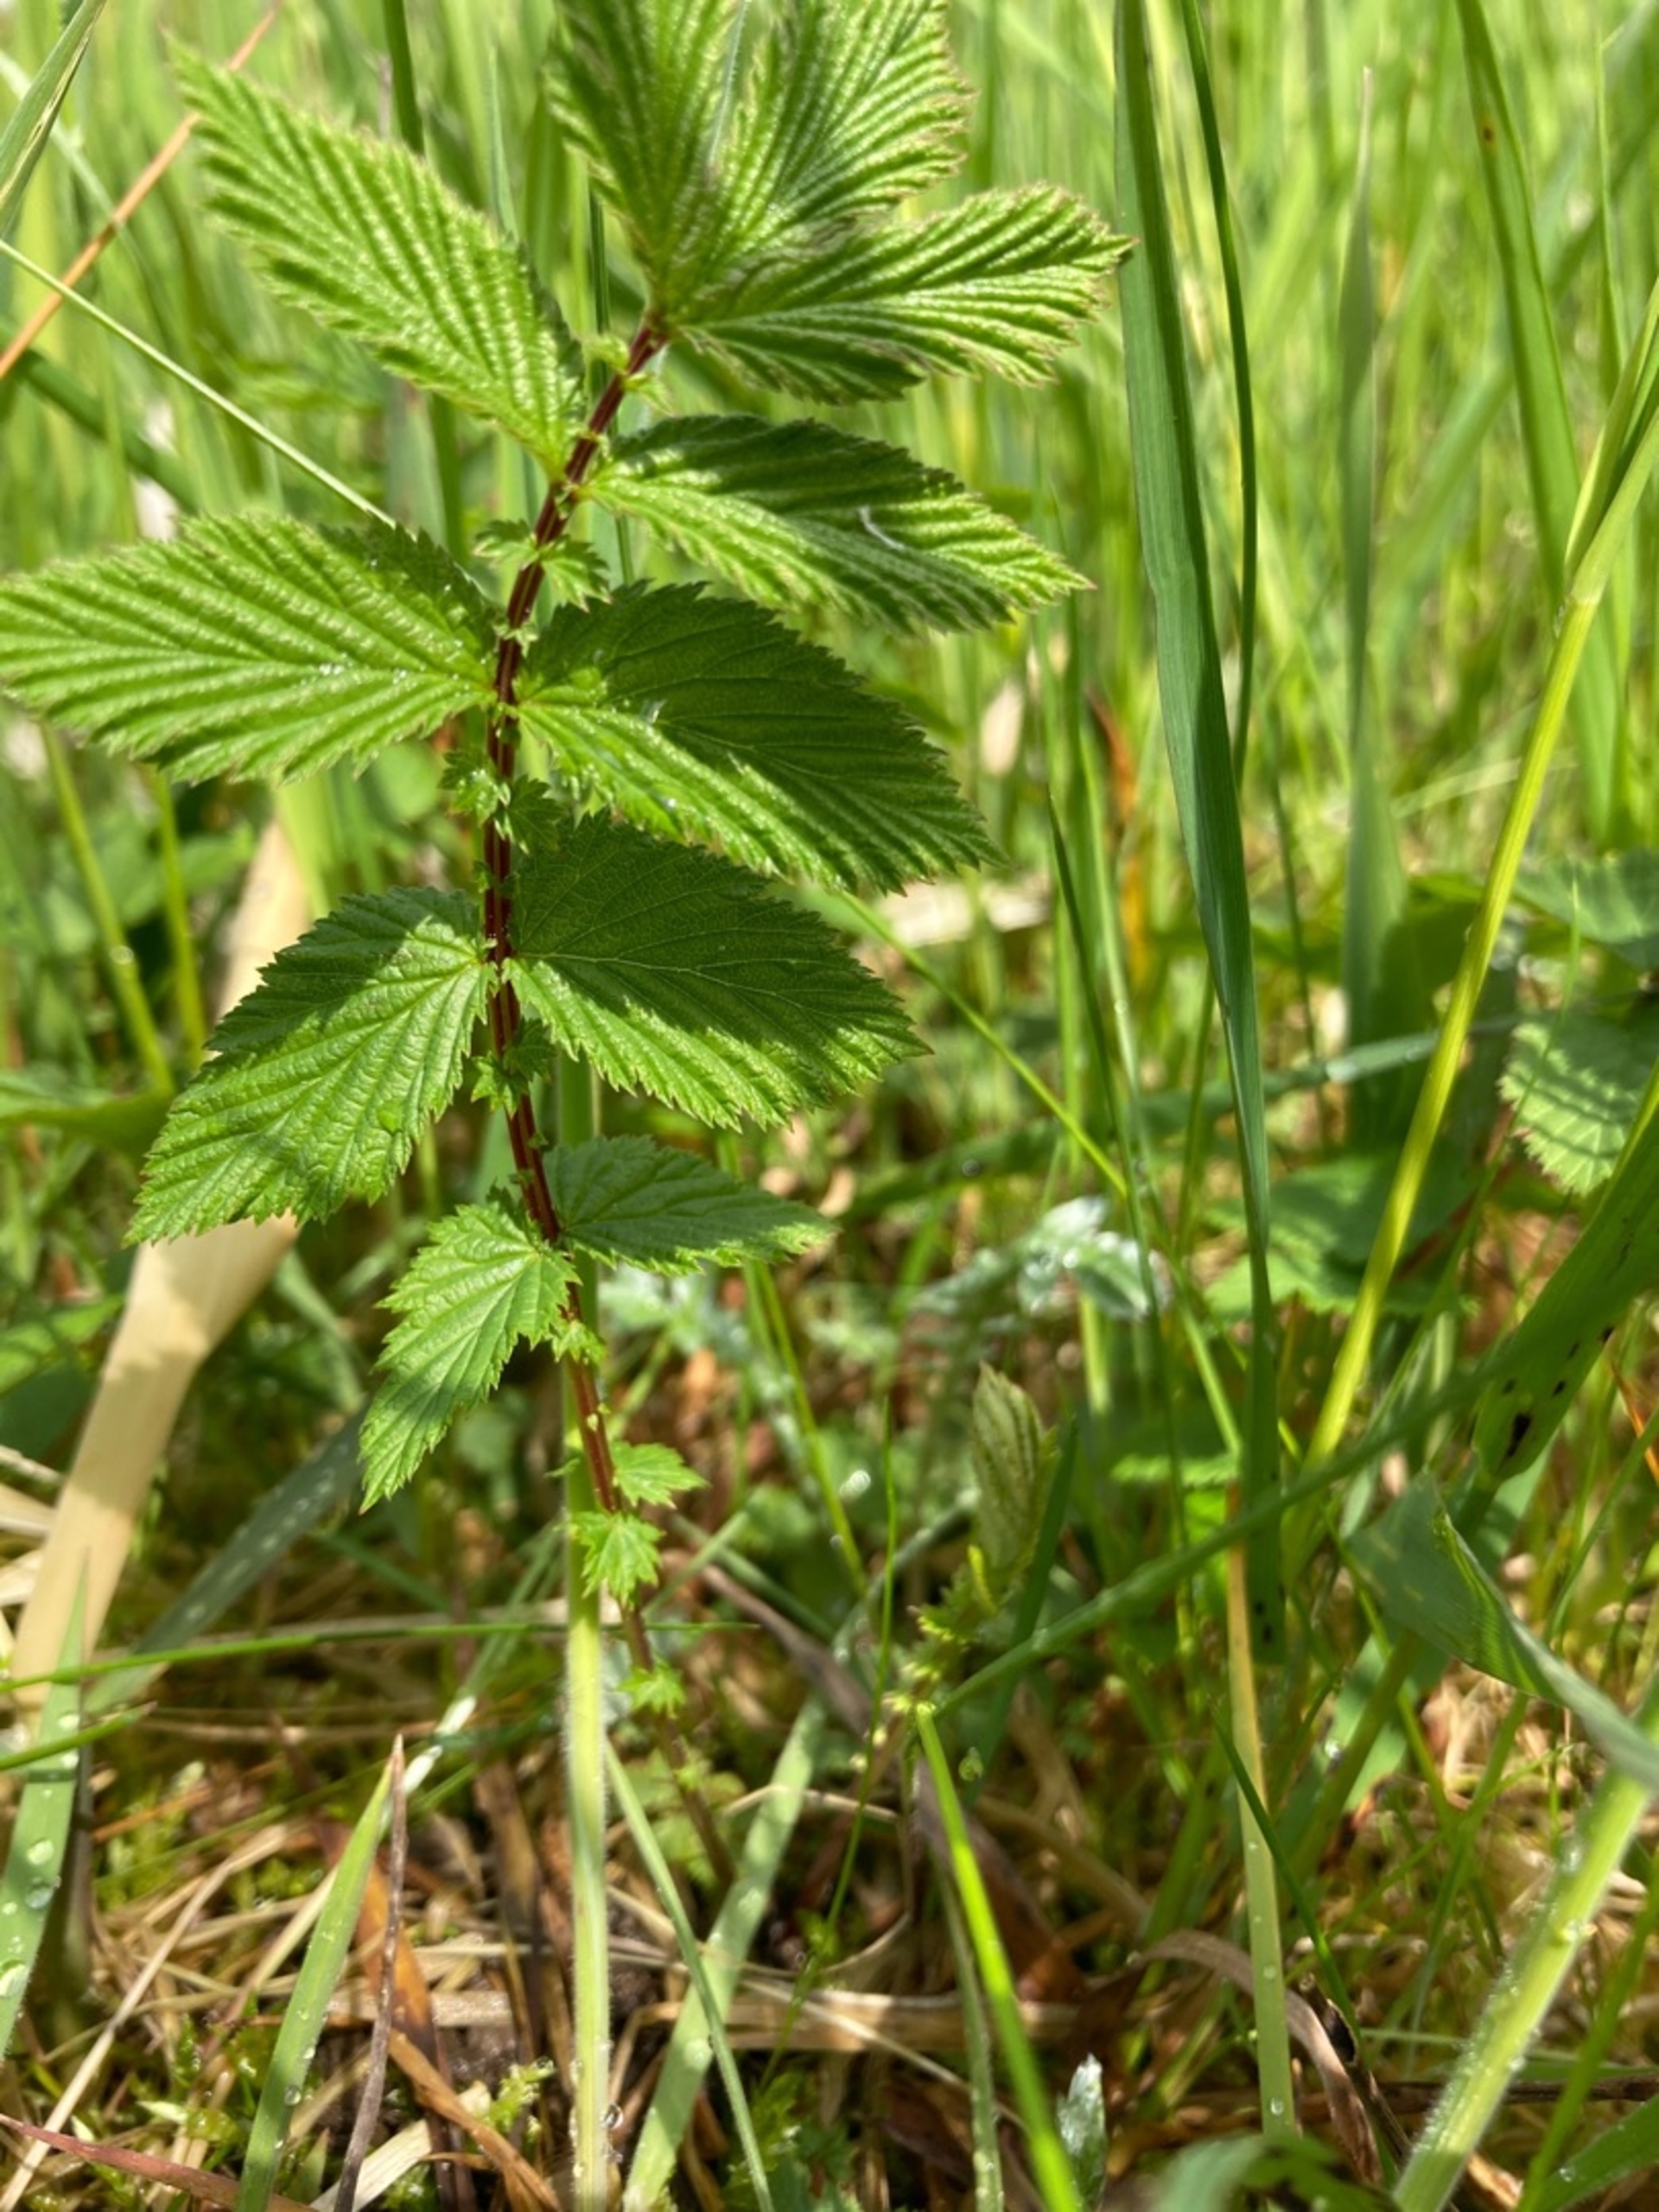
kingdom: Plantae
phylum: Tracheophyta
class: Magnoliopsida
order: Rosales
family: Rosaceae
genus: Filipendula
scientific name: Filipendula ulmaria
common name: Almindelig mjødurt
